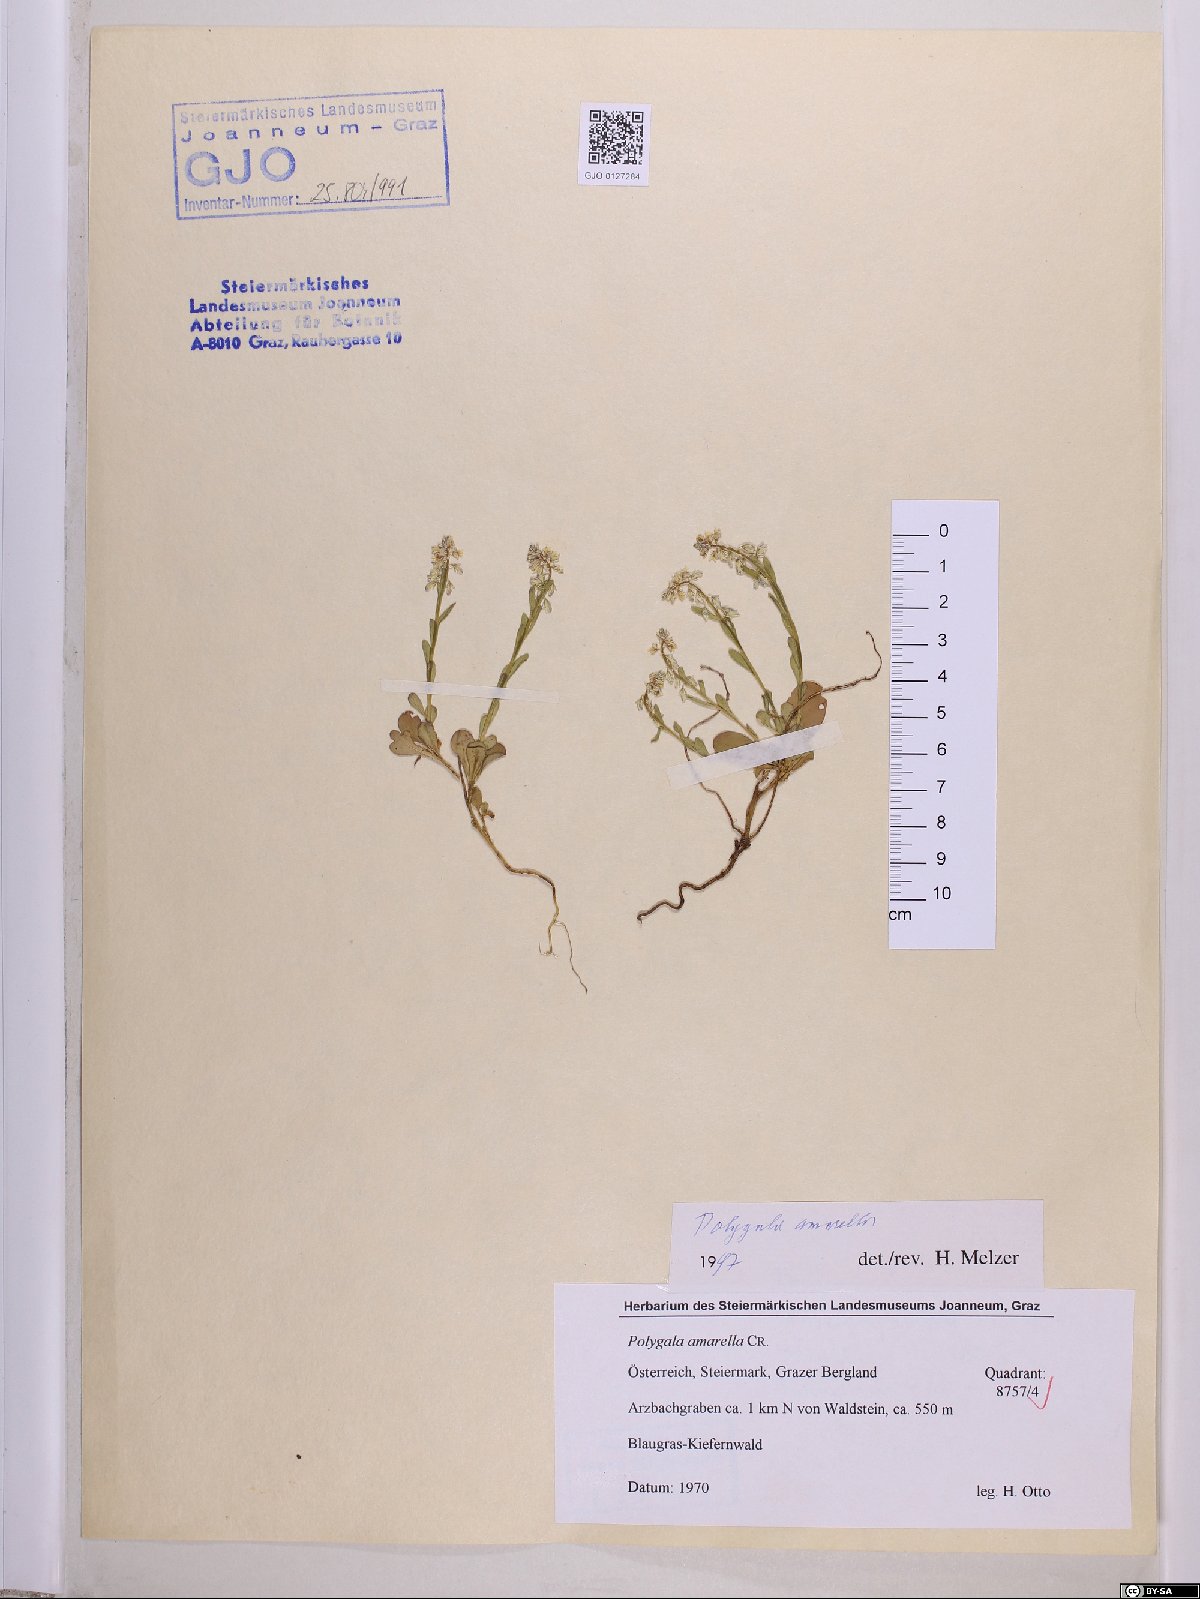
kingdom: Plantae
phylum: Tracheophyta
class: Magnoliopsida
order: Fabales
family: Polygalaceae
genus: Polygala
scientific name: Polygala amarella
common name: Dwarf milkwort
